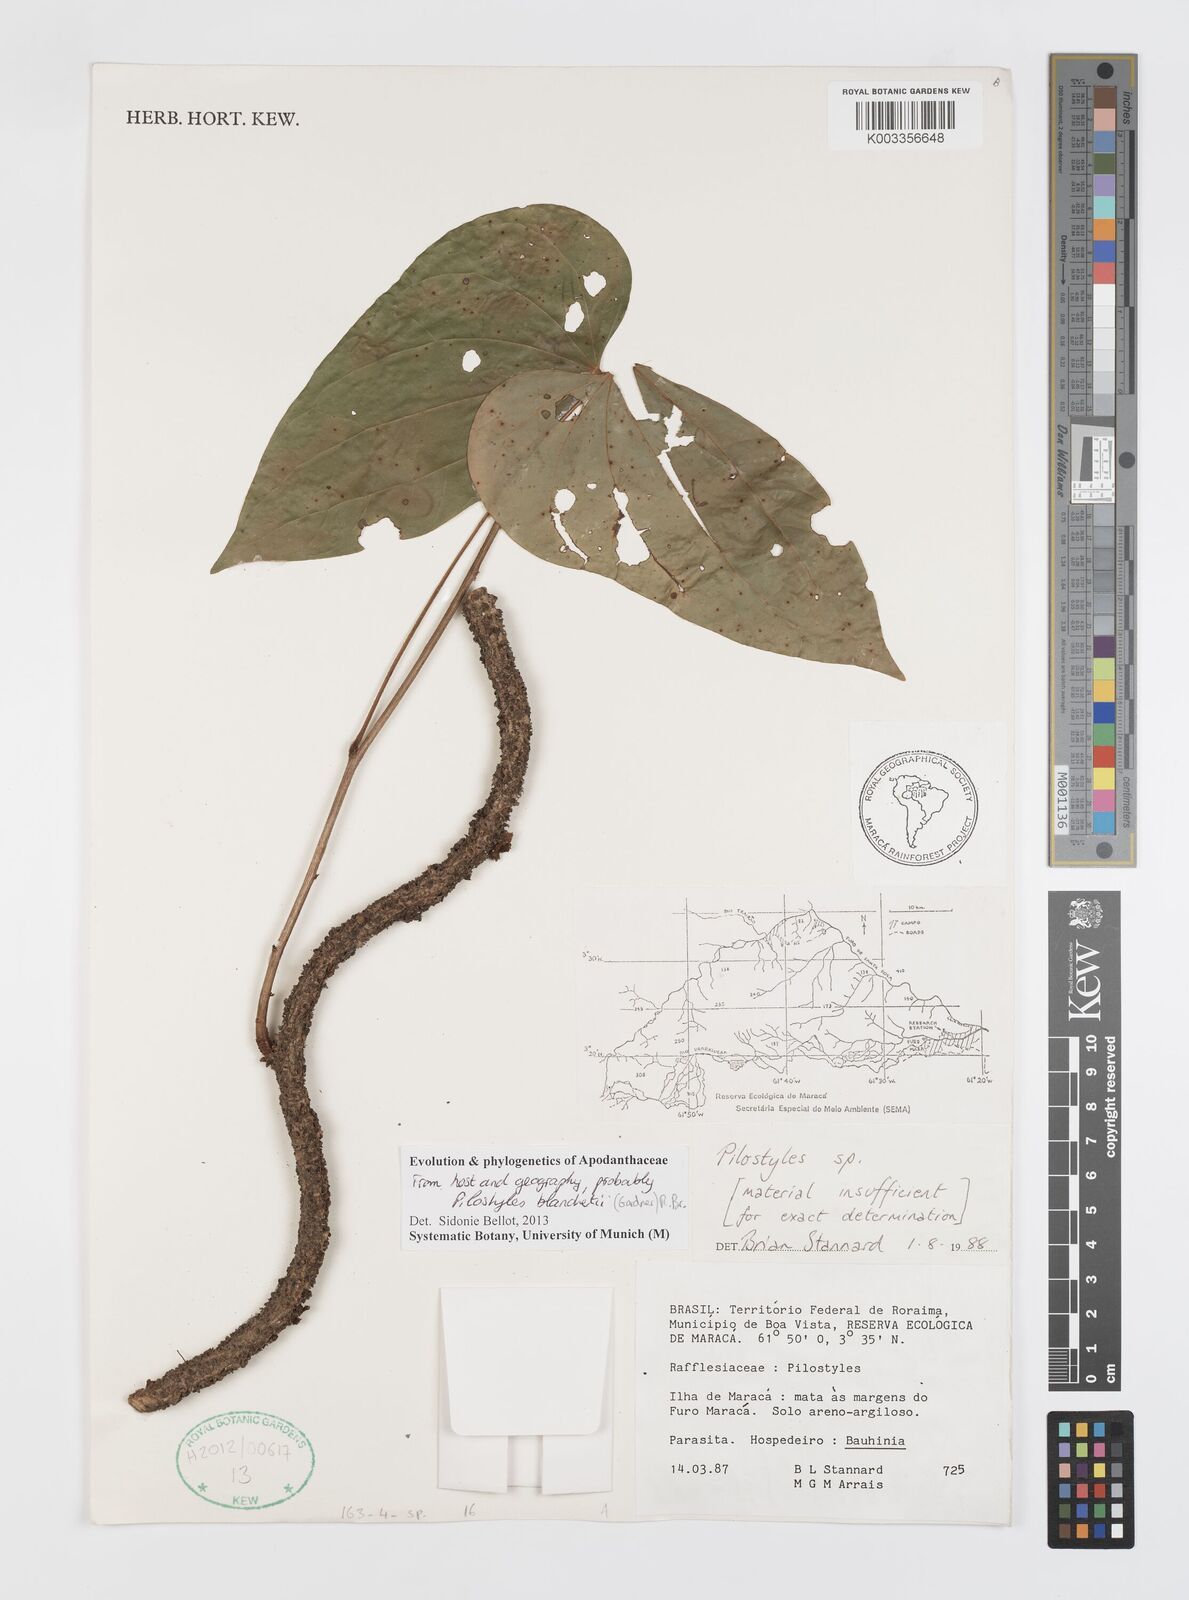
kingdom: Plantae
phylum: Tracheophyta
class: Magnoliopsida
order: Cucurbitales
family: Apodanthaceae
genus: Pilostyles
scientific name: Pilostyles blanchetii
